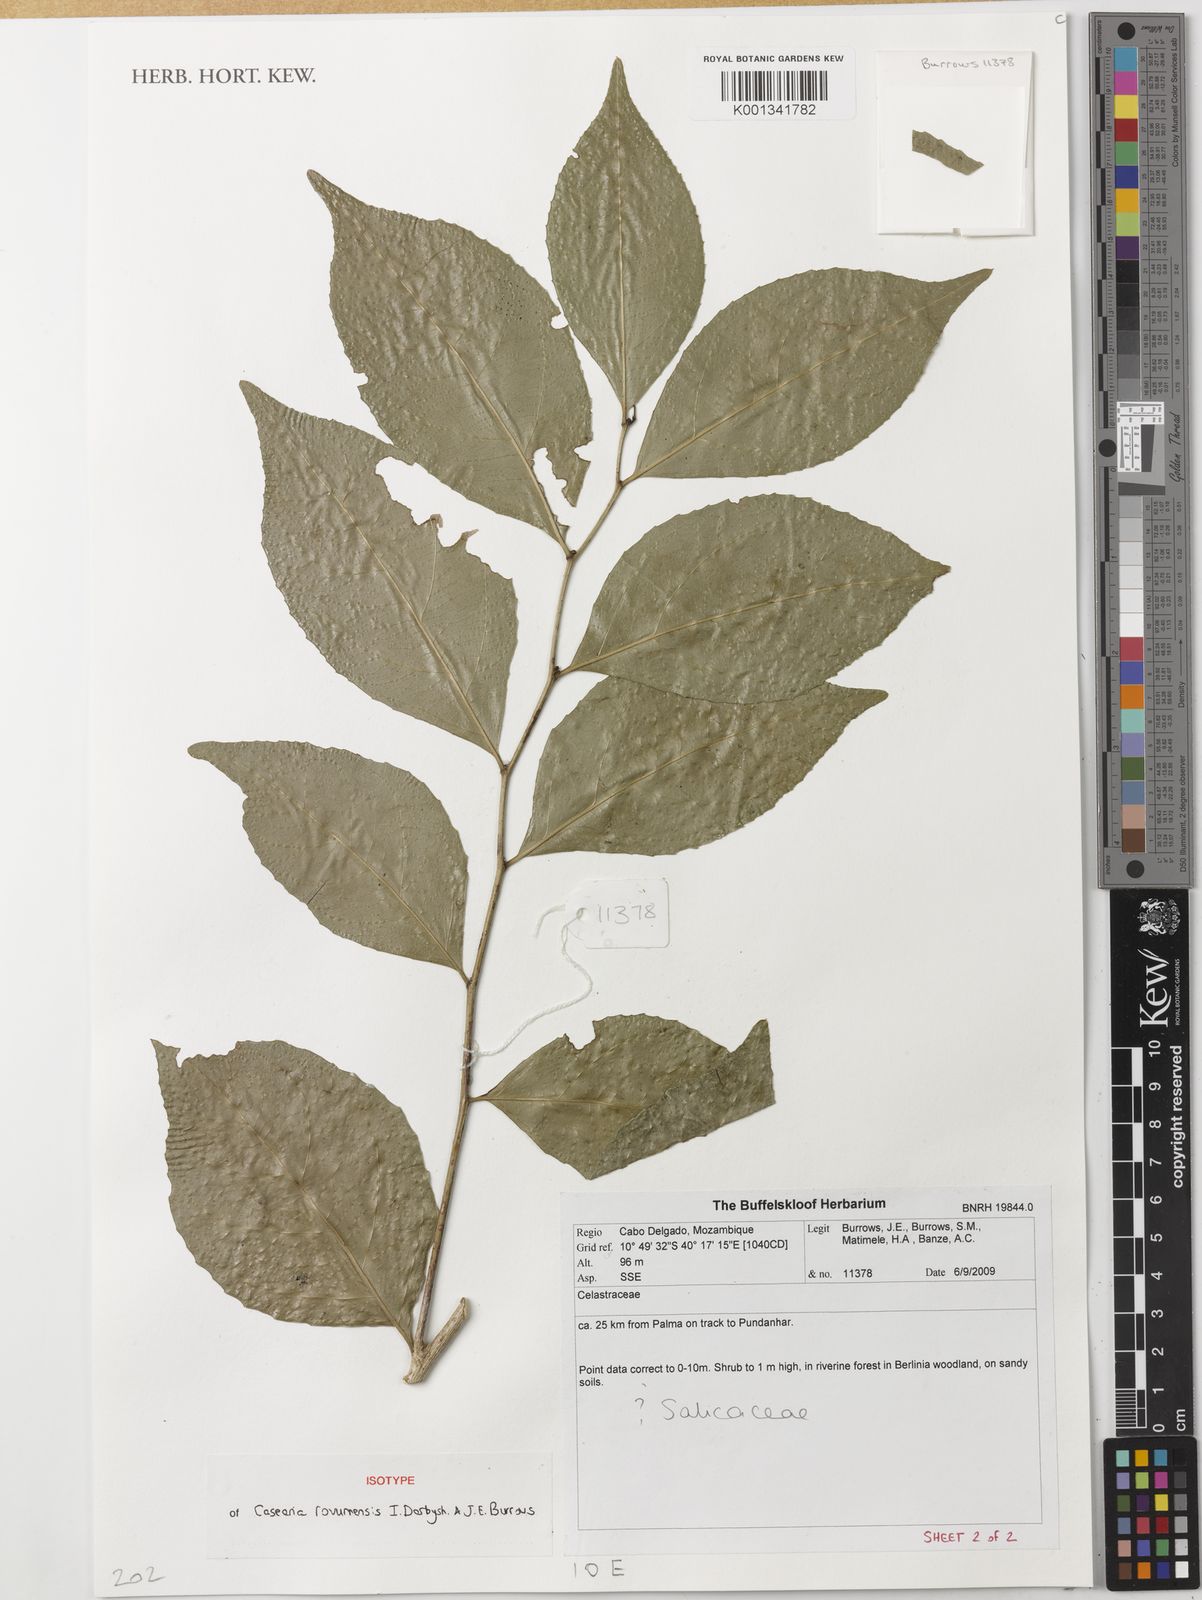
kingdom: Plantae
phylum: Tracheophyta
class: Magnoliopsida
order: Malpighiales
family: Salicaceae
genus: Casearia
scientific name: Casearia
